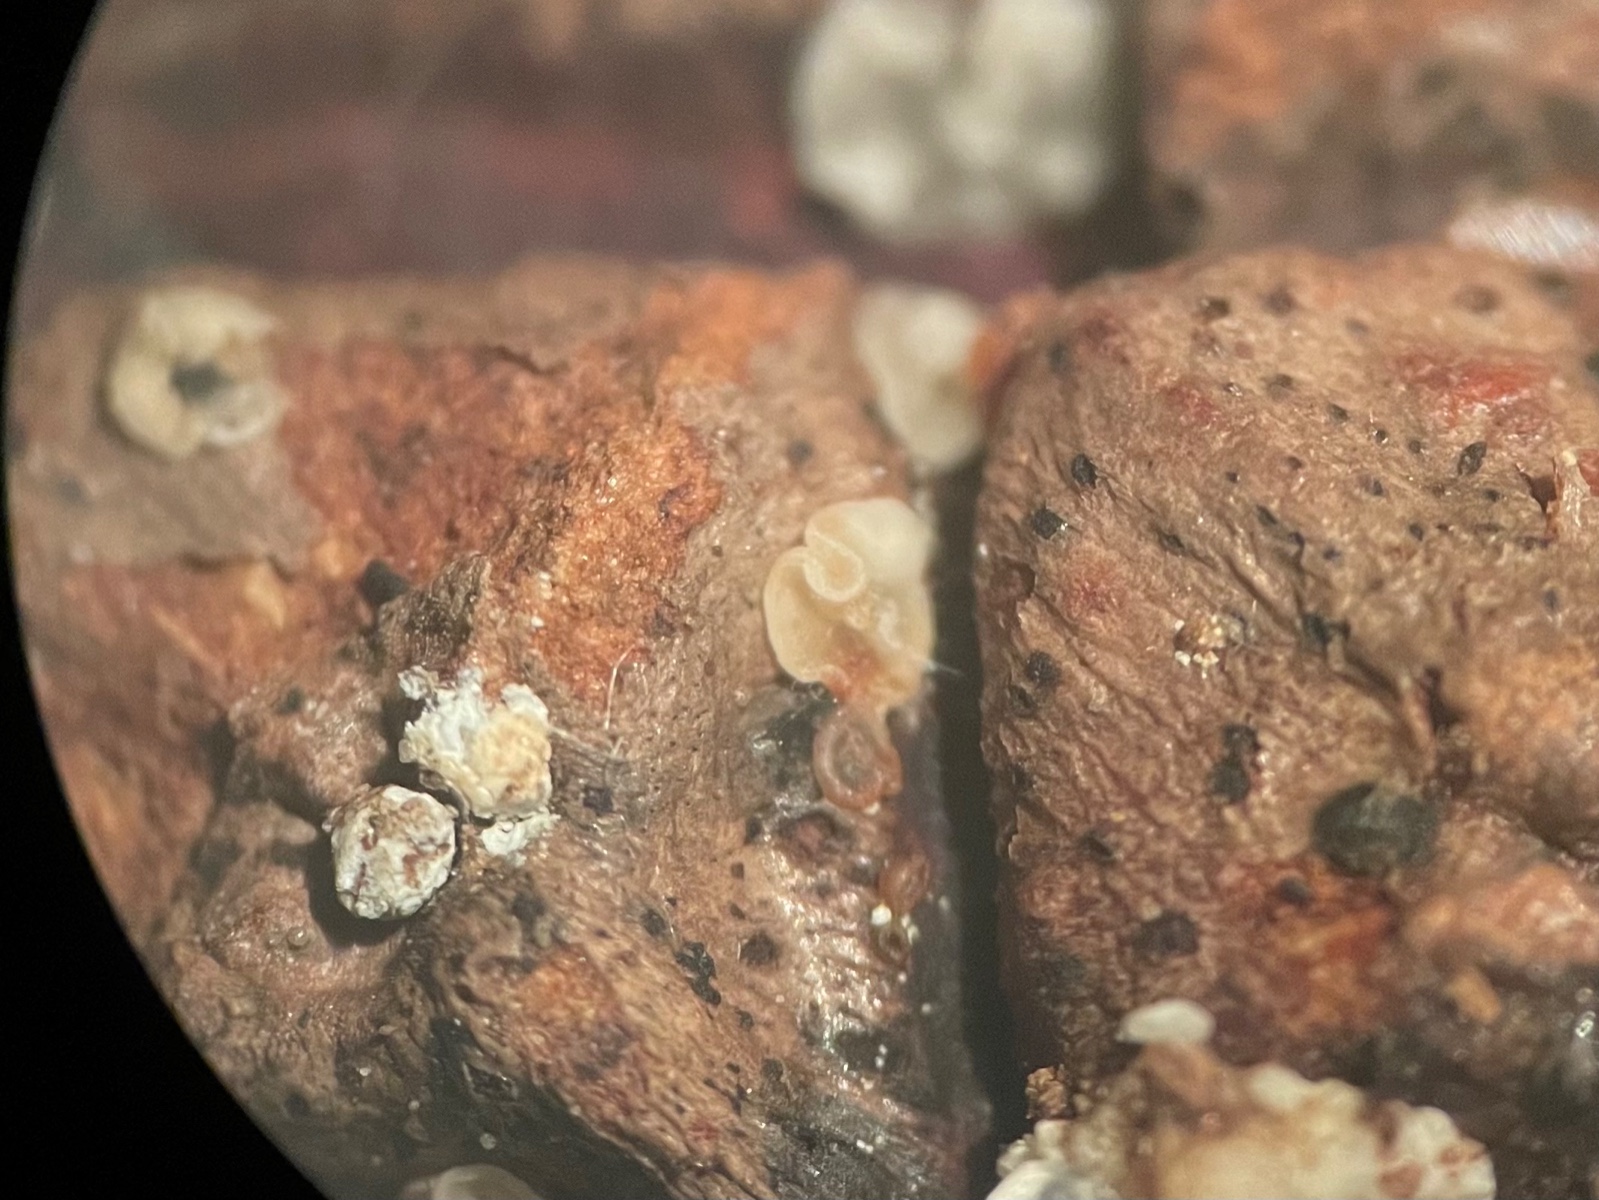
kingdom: Fungi
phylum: Ascomycota
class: Leotiomycetes
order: Helotiales
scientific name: Helotiales
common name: stilkskiveordenen
